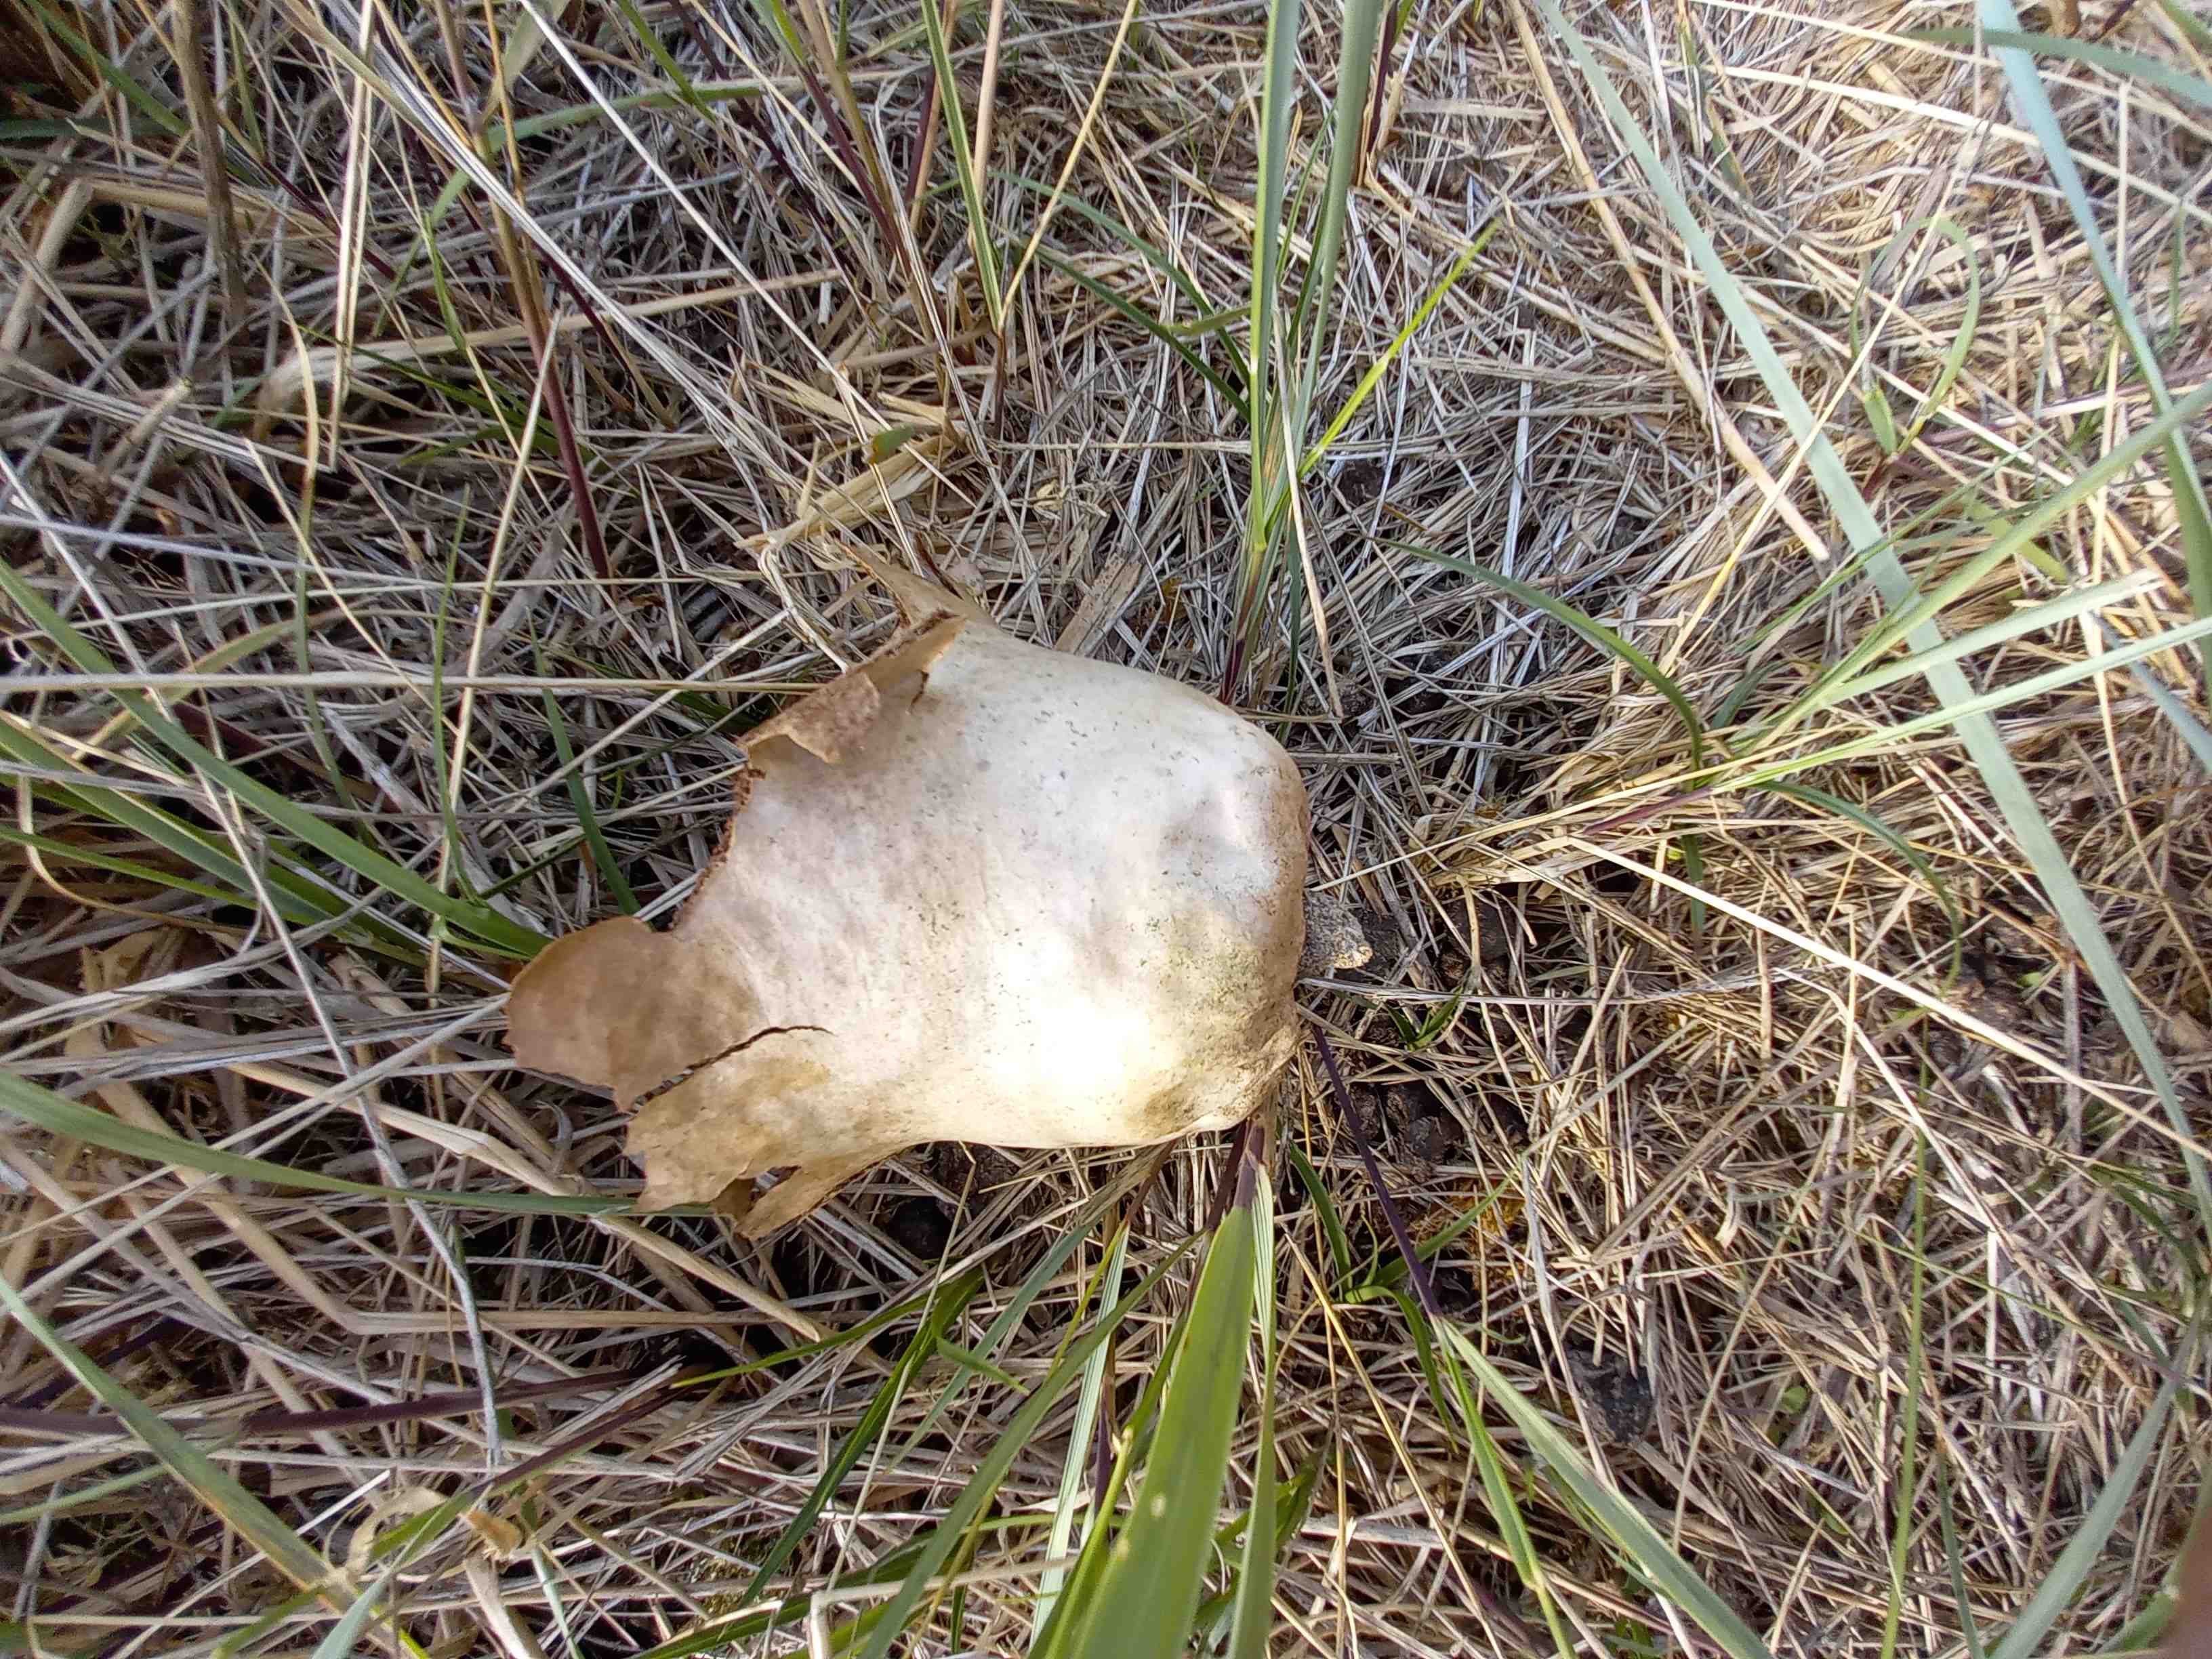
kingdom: Fungi
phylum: Basidiomycota
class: Agaricomycetes
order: Agaricales
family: Lycoperdaceae
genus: Bovistella
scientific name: Bovistella utriformis
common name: skællet støvbold
